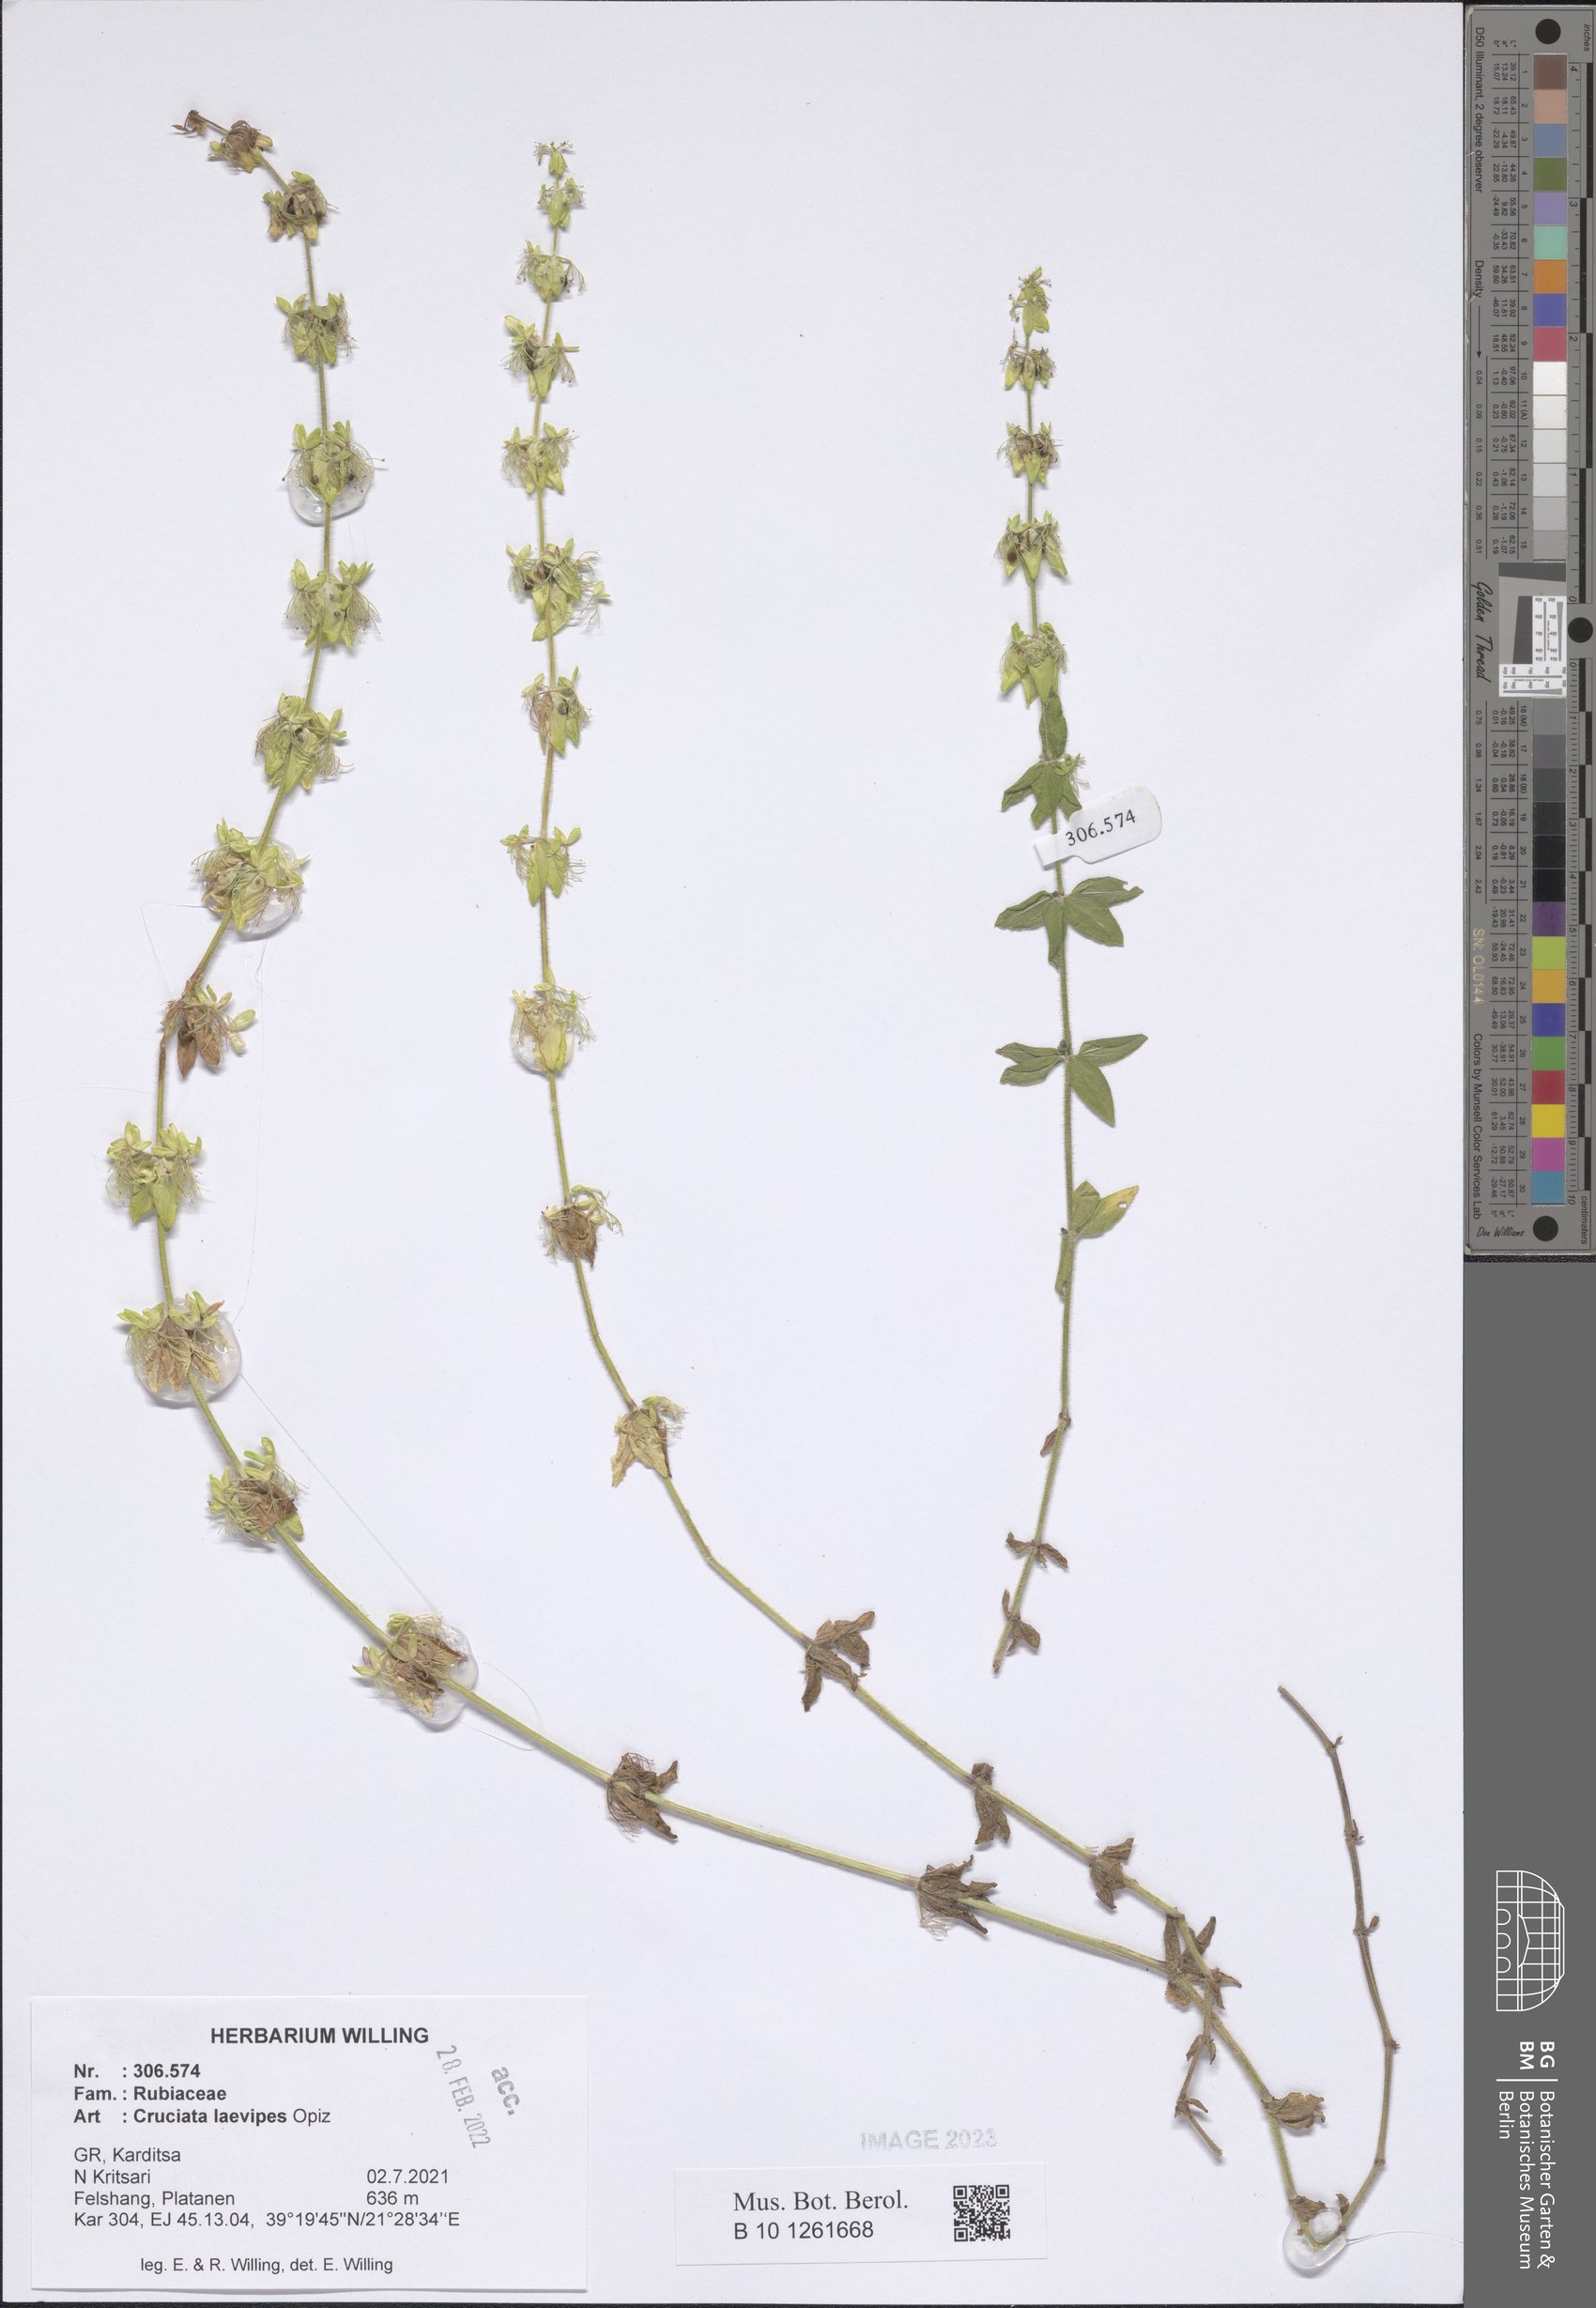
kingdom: Plantae
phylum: Tracheophyta
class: Magnoliopsida
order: Gentianales
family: Rubiaceae
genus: Cruciata
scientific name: Cruciata laevipes
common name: Crosswort
